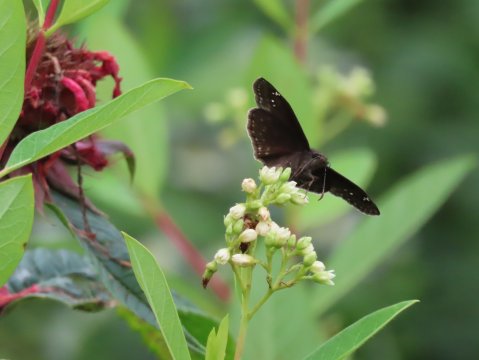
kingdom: Animalia
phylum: Arthropoda
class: Insecta
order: Lepidoptera
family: Hesperiidae
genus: Erynnis
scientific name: Erynnis
